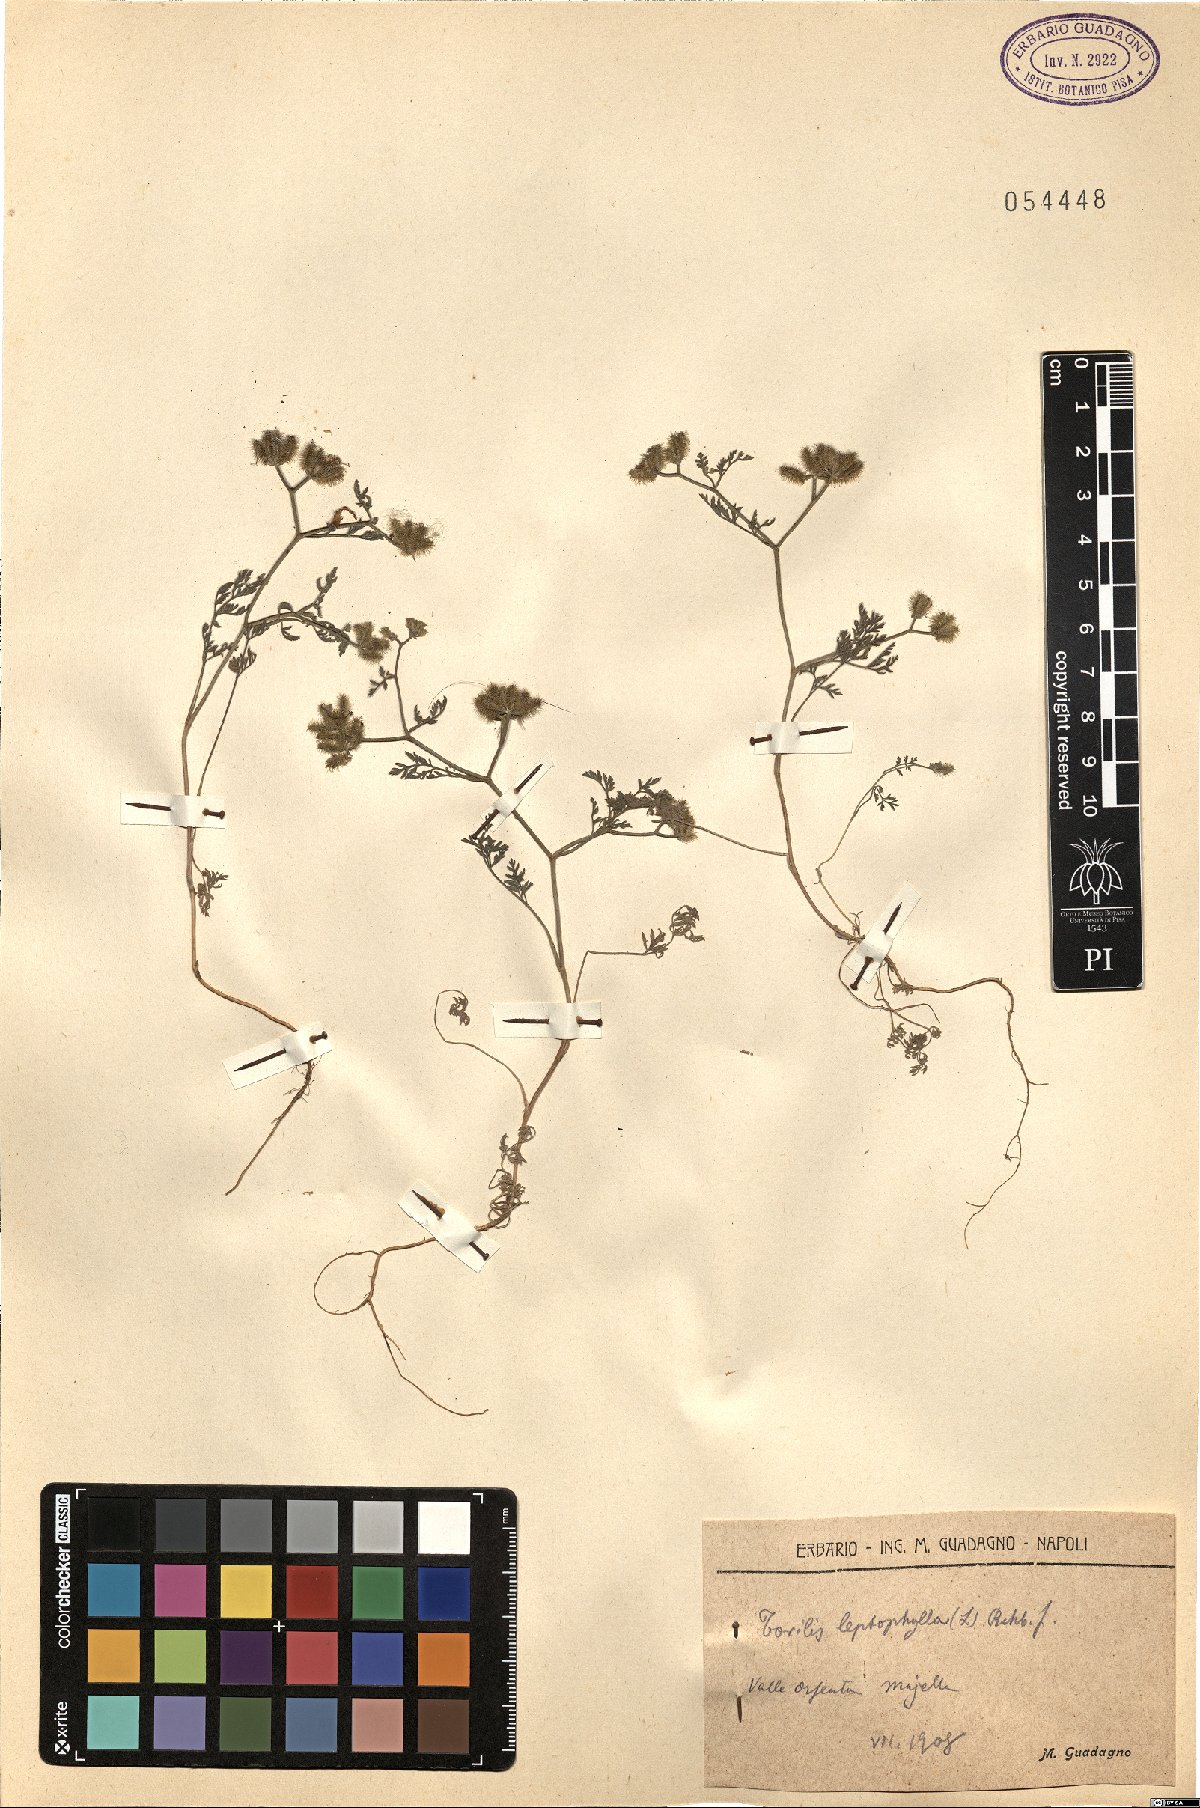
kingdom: Plantae
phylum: Tracheophyta
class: Magnoliopsida
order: Apiales
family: Apiaceae
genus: Torilis
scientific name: Torilis leptophylla
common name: Bristlefruit hedgeparsley
